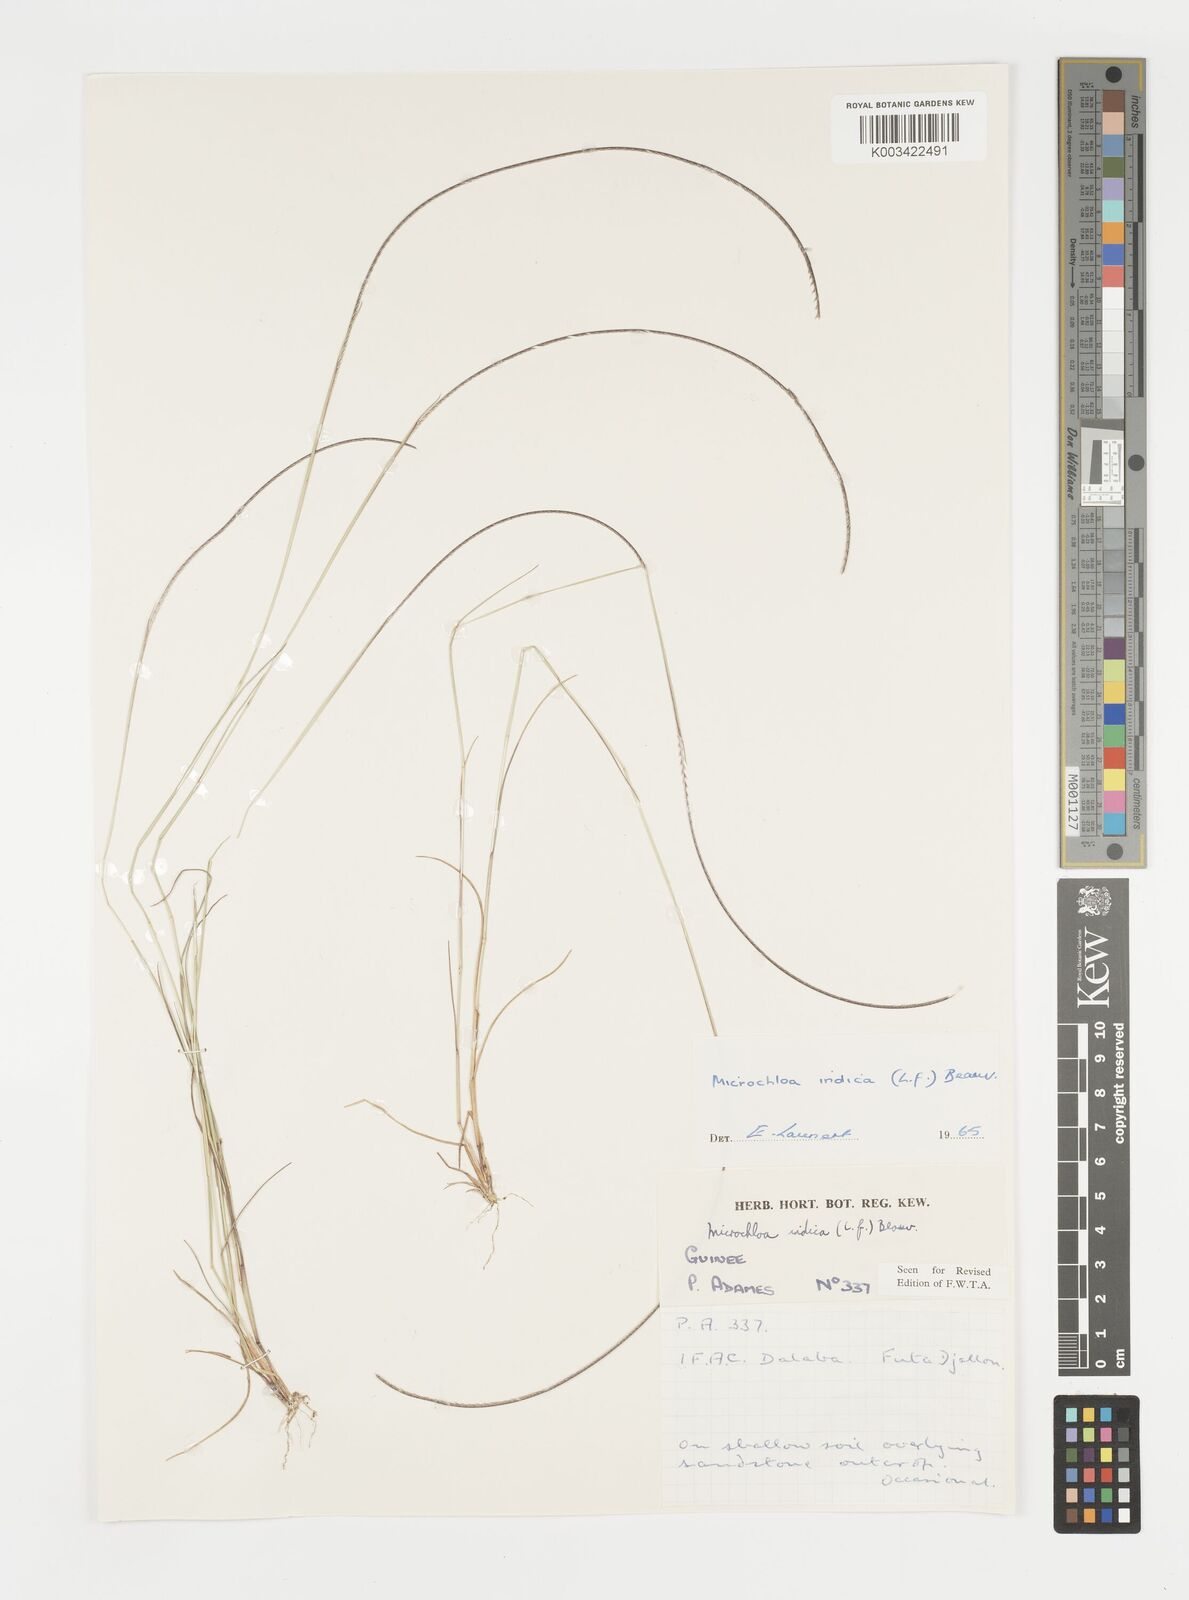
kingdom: Plantae
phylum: Tracheophyta
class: Liliopsida
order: Poales
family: Poaceae
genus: Microchloa
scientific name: Microchloa indica
